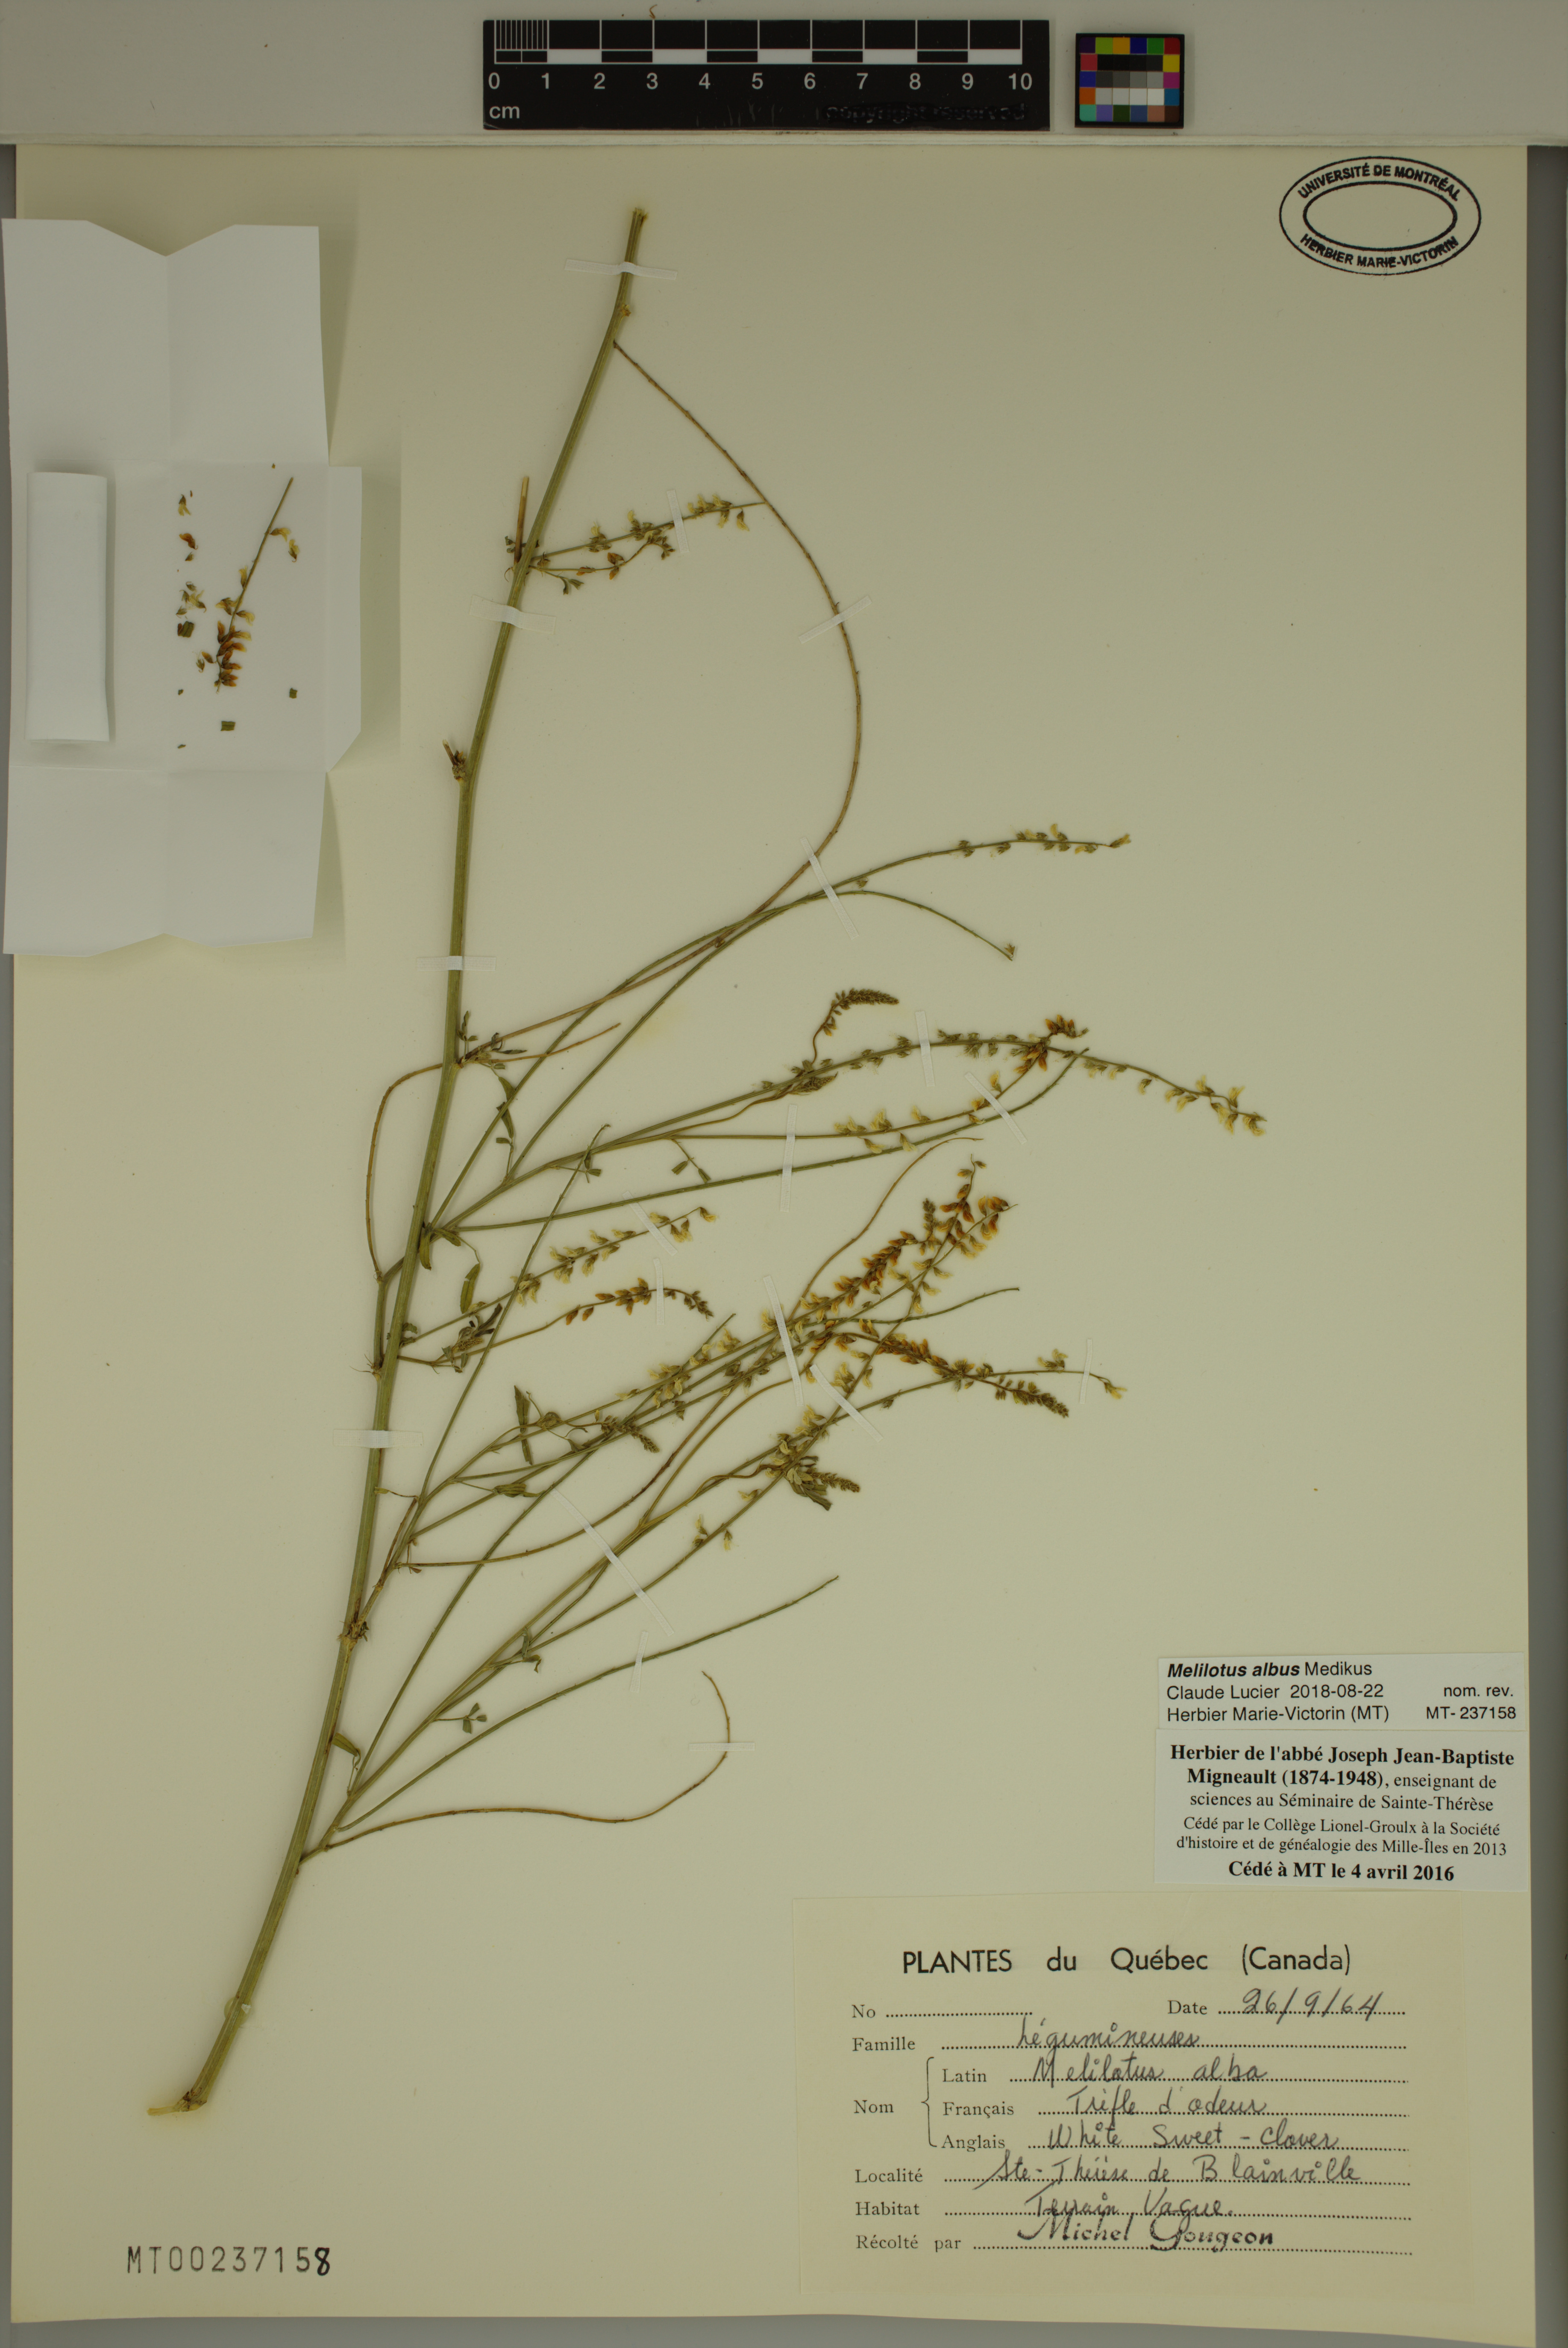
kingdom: Plantae
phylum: Tracheophyta
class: Magnoliopsida
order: Fabales
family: Fabaceae
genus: Melilotus
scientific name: Melilotus albus
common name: White melilot
